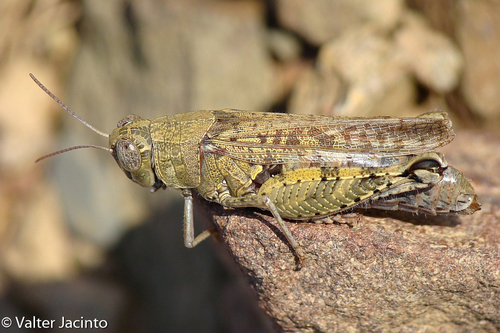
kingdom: Animalia
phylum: Arthropoda
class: Insecta
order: Orthoptera
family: Acrididae
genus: Calliptamus
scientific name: Calliptamus barbarus
